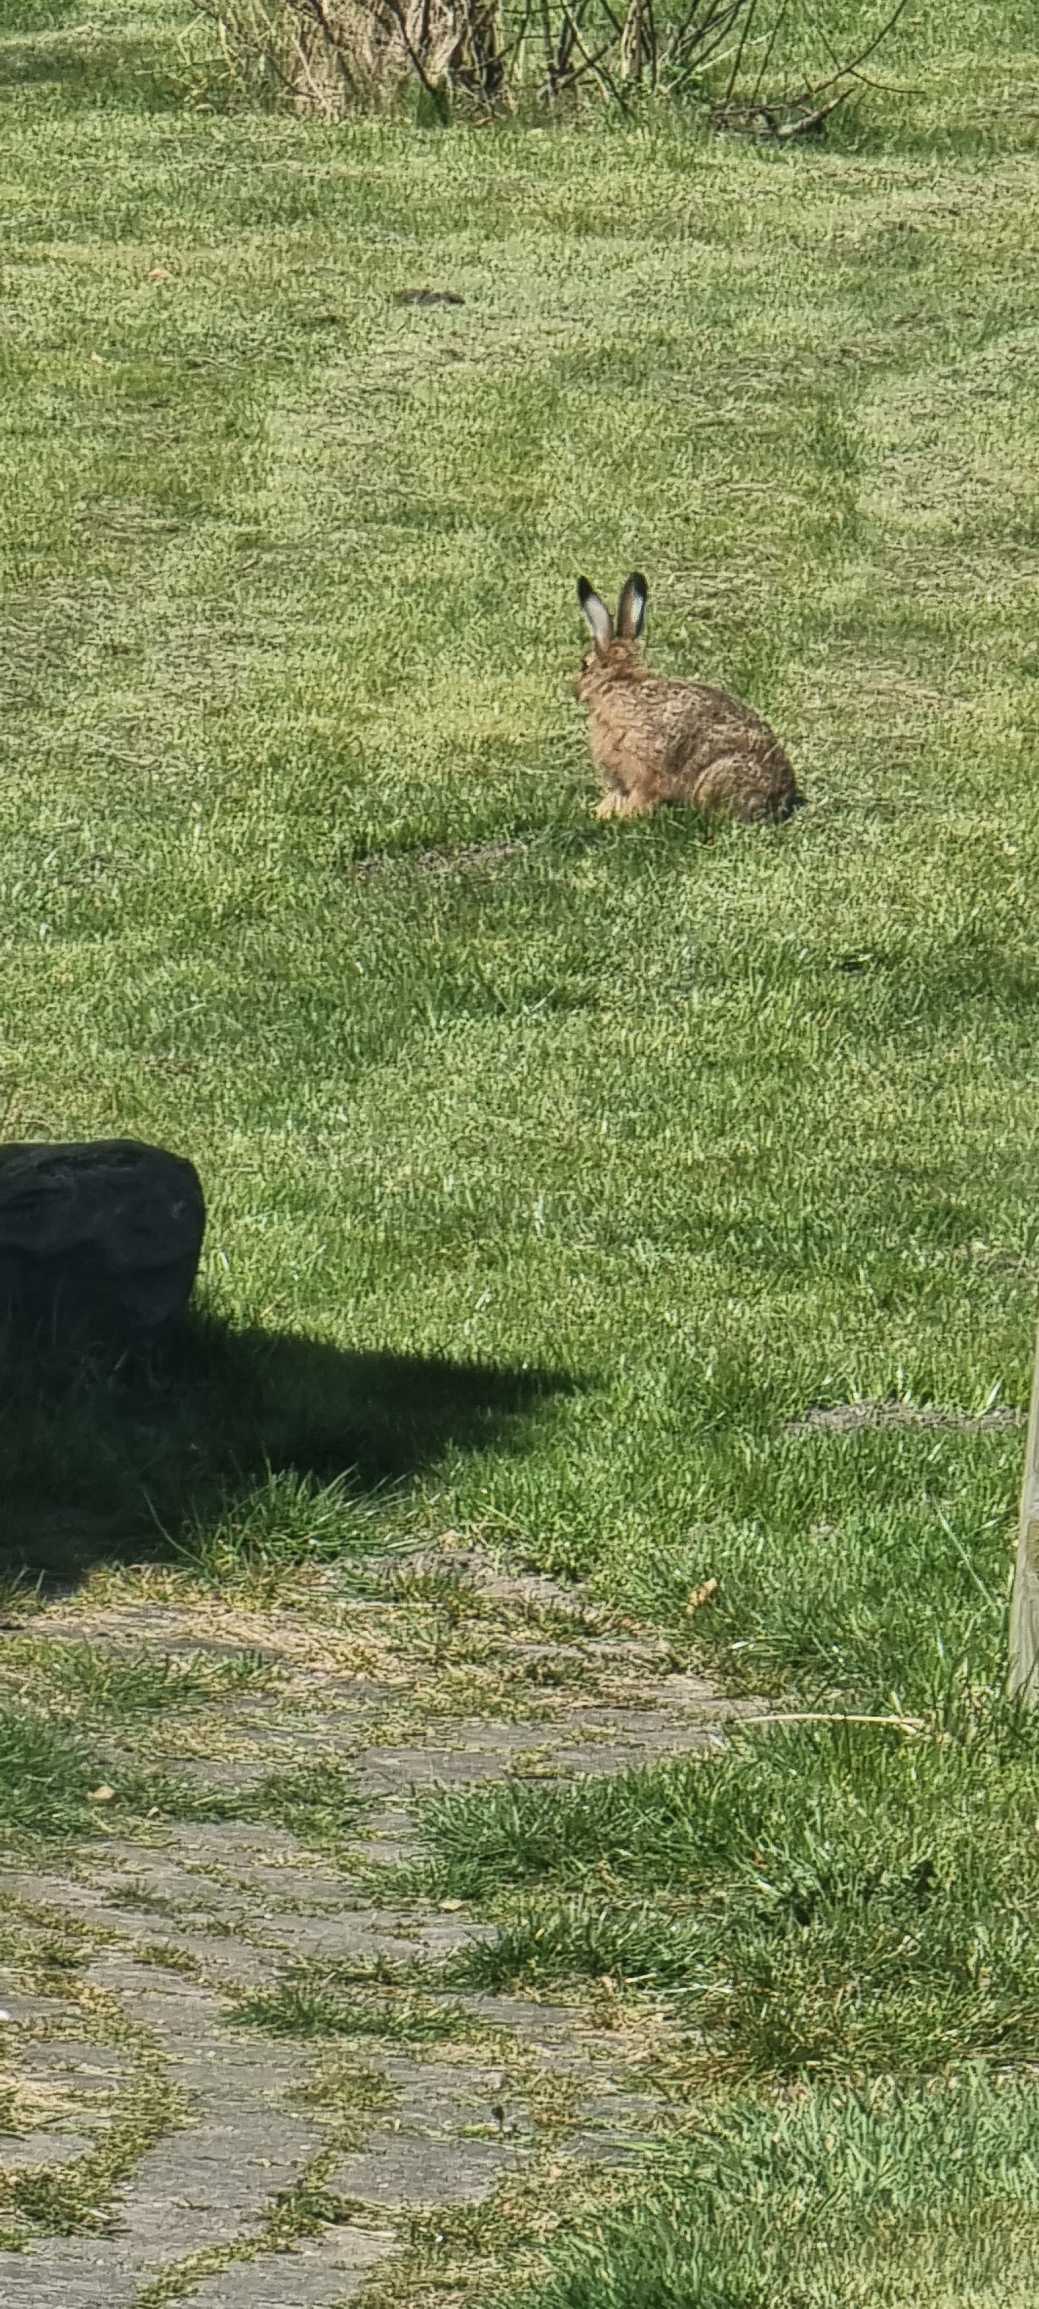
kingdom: Animalia
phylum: Chordata
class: Mammalia
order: Lagomorpha
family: Leporidae
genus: Lepus
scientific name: Lepus europaeus
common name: Hare
